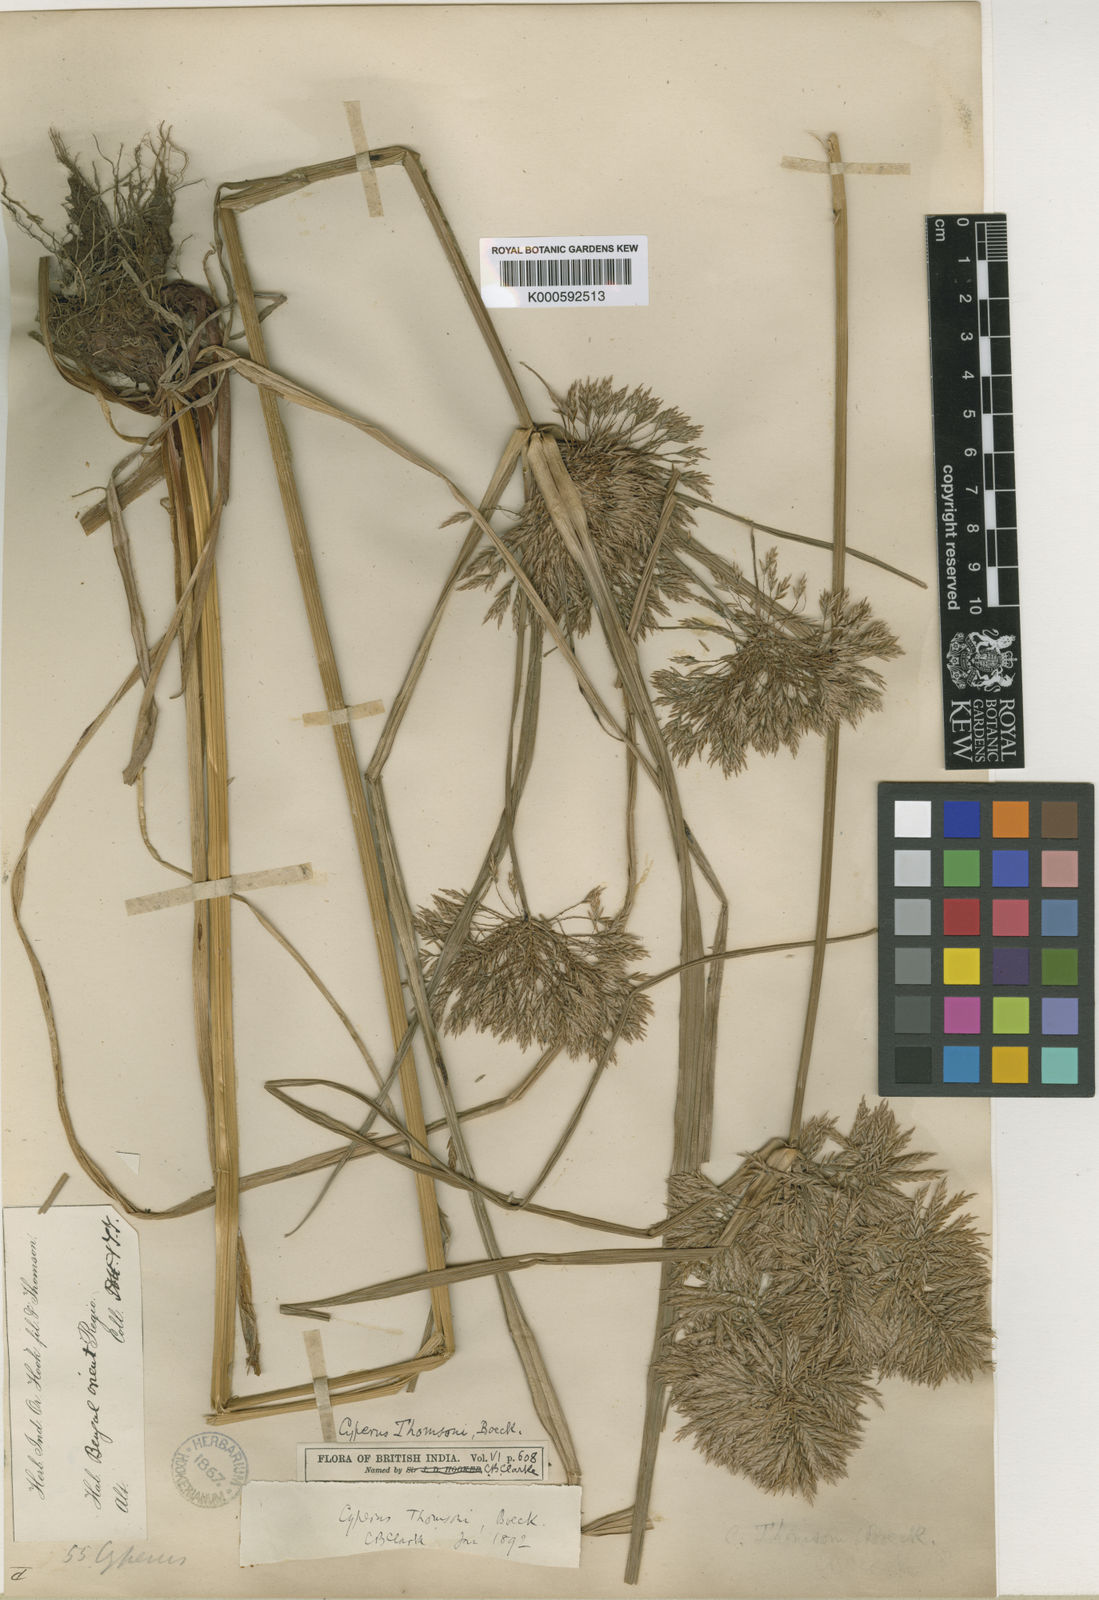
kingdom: Plantae
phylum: Tracheophyta
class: Liliopsida
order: Poales
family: Cyperaceae
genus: Cyperus
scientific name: Cyperus thomsonii
